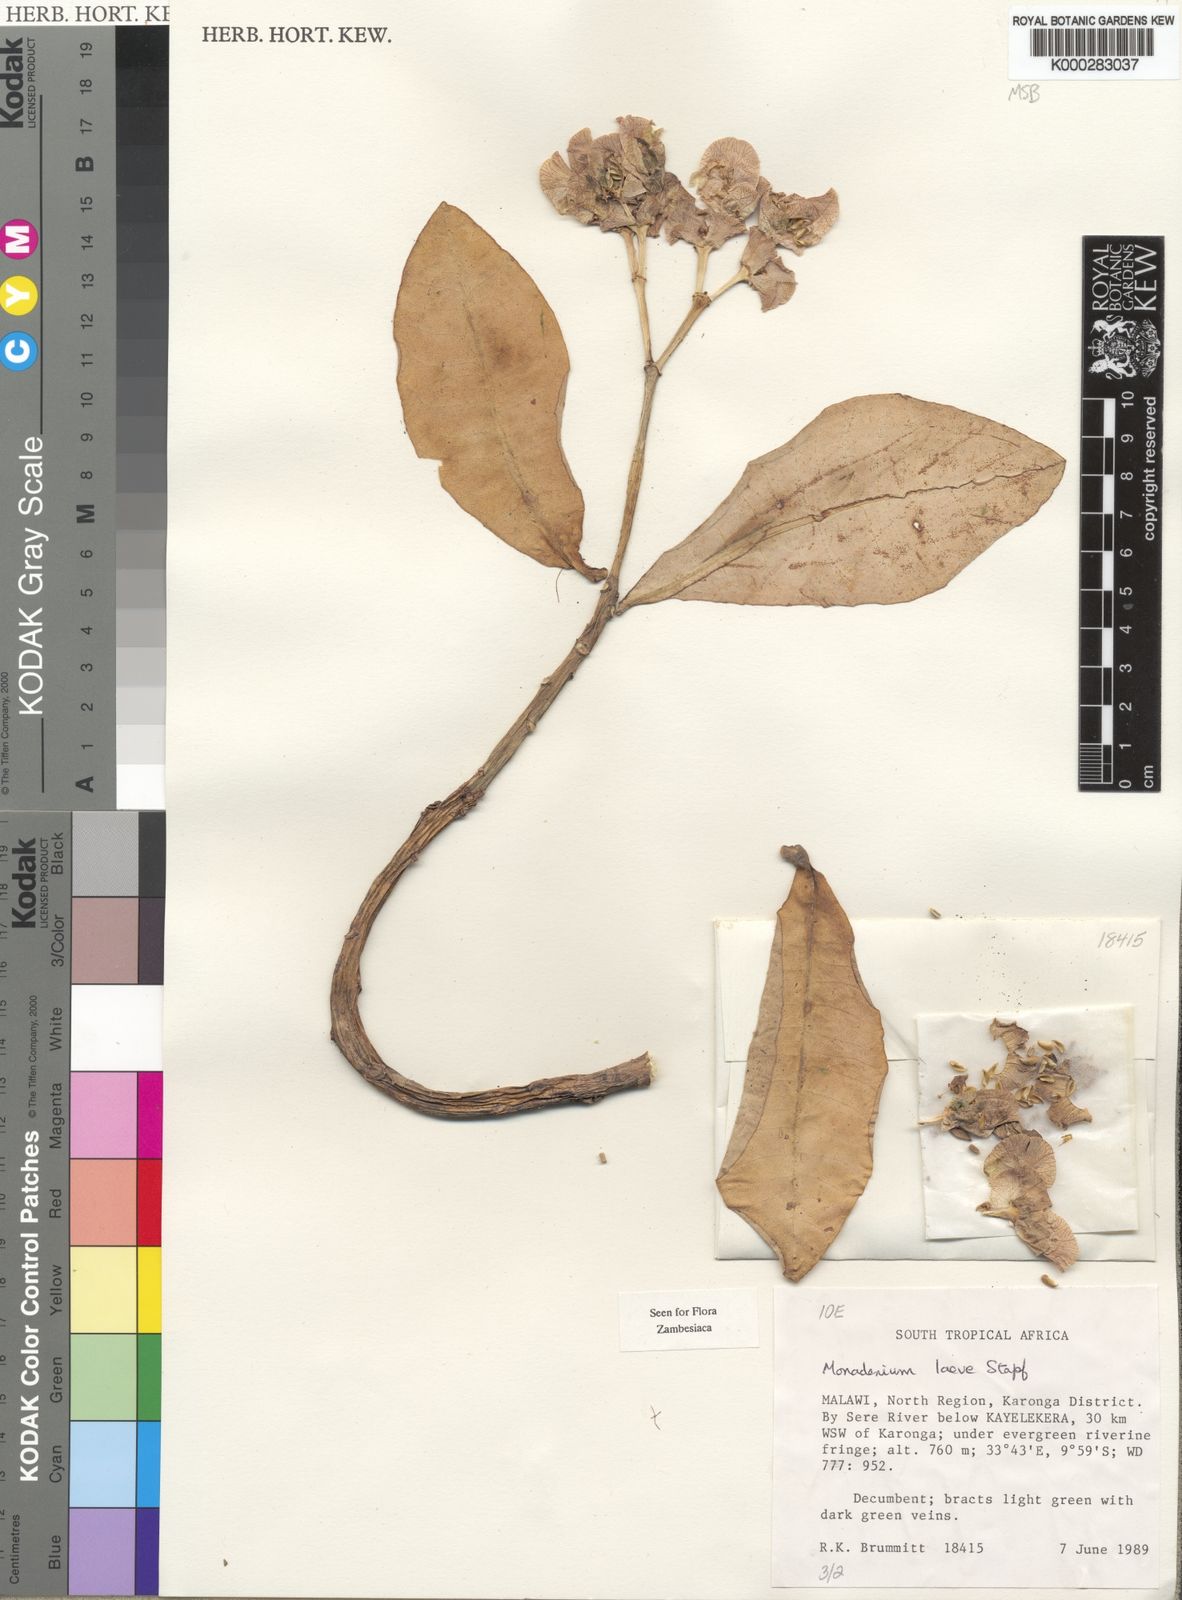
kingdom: Plantae
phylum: Tracheophyta
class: Magnoliopsida
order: Malpighiales
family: Euphorbiaceae
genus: Euphorbia
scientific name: Euphorbia pseudolaevis
